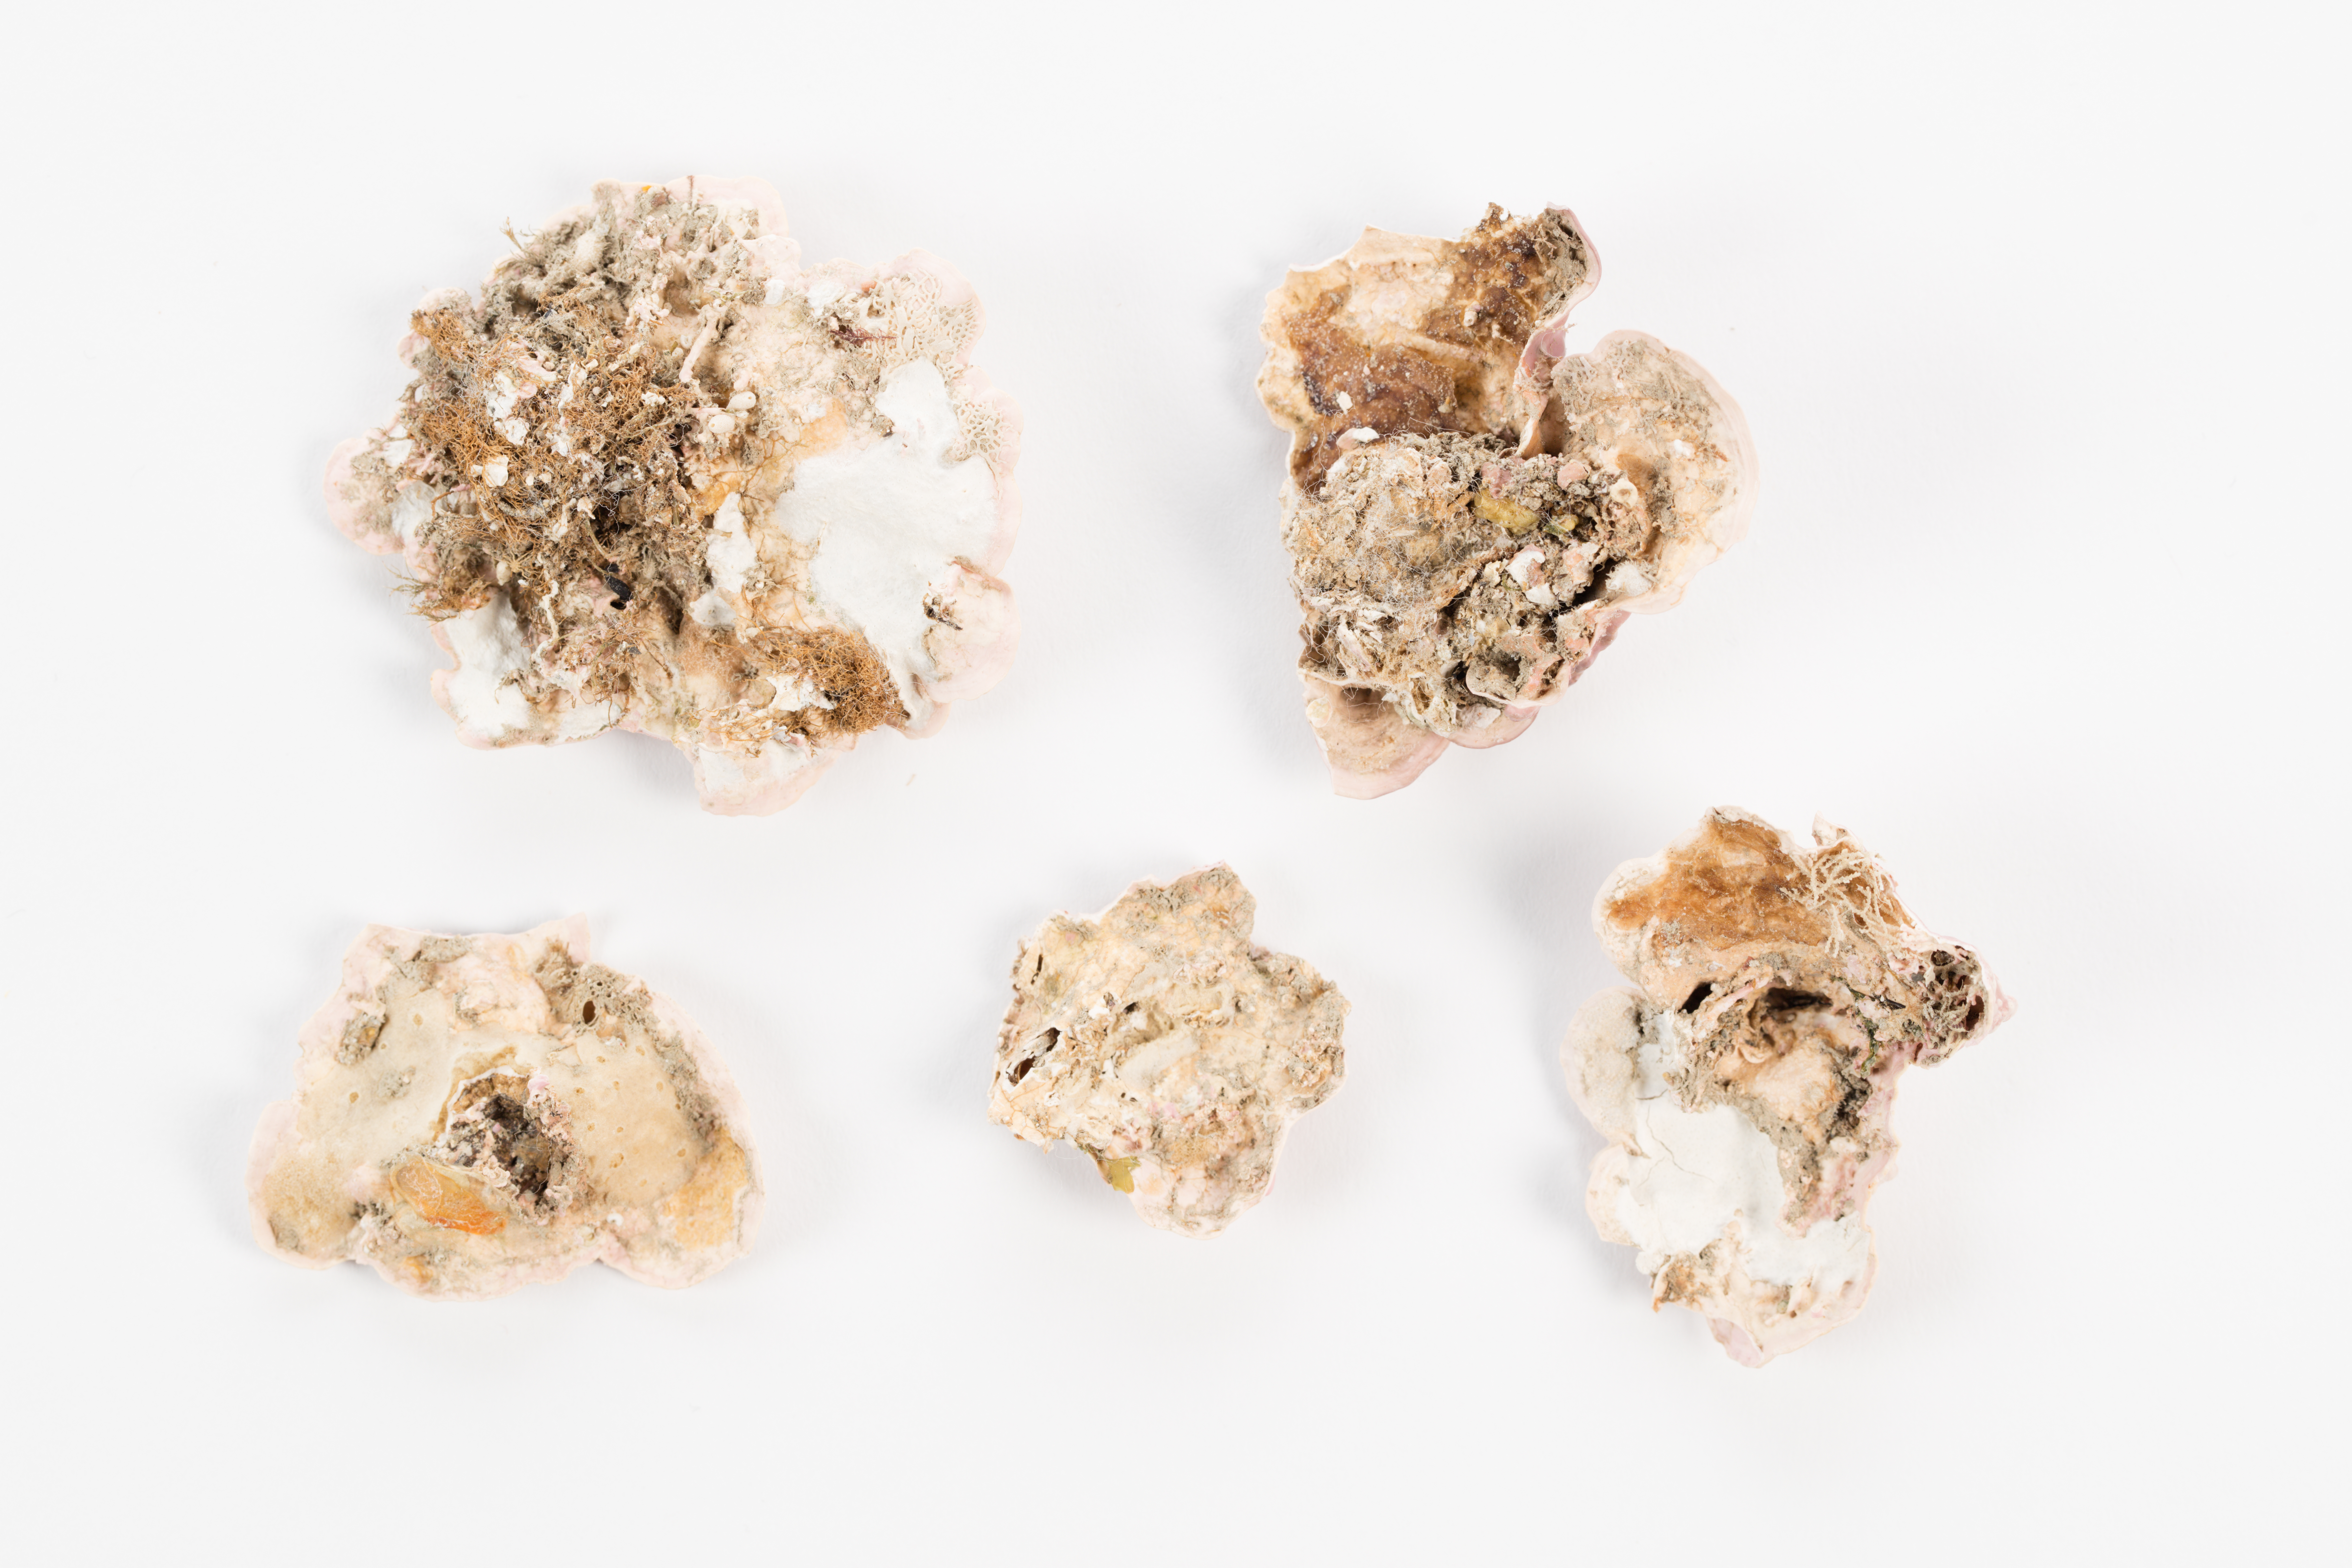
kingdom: Plantae
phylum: Rhodophyta
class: Florideophyceae
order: Corallinales
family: Mesophyllumaceae
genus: Mesophyllum
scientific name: Mesophyllum
